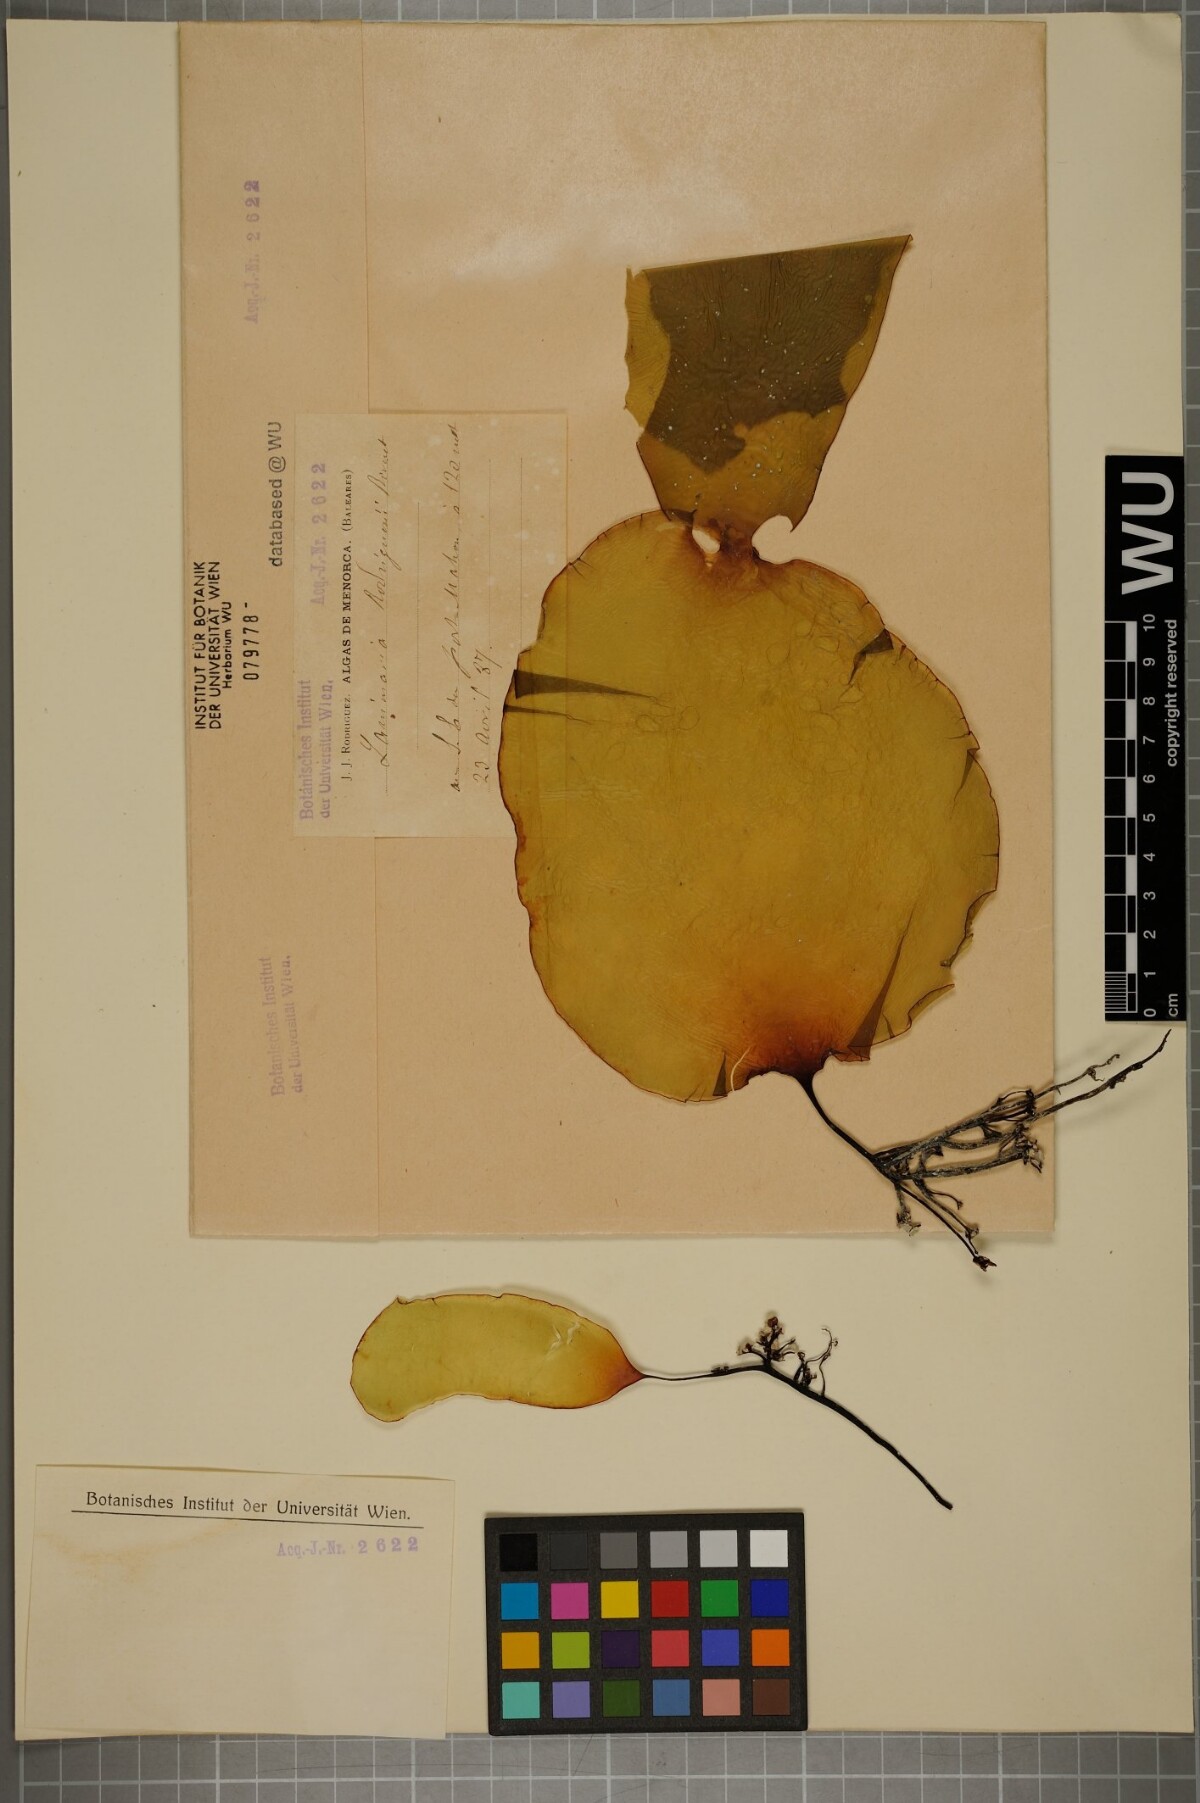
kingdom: Chromista
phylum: Ochrophyta
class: Phaeophyceae
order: Laminariales
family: Laminariaceae
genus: Laminaria
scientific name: Laminaria rodriguezii
